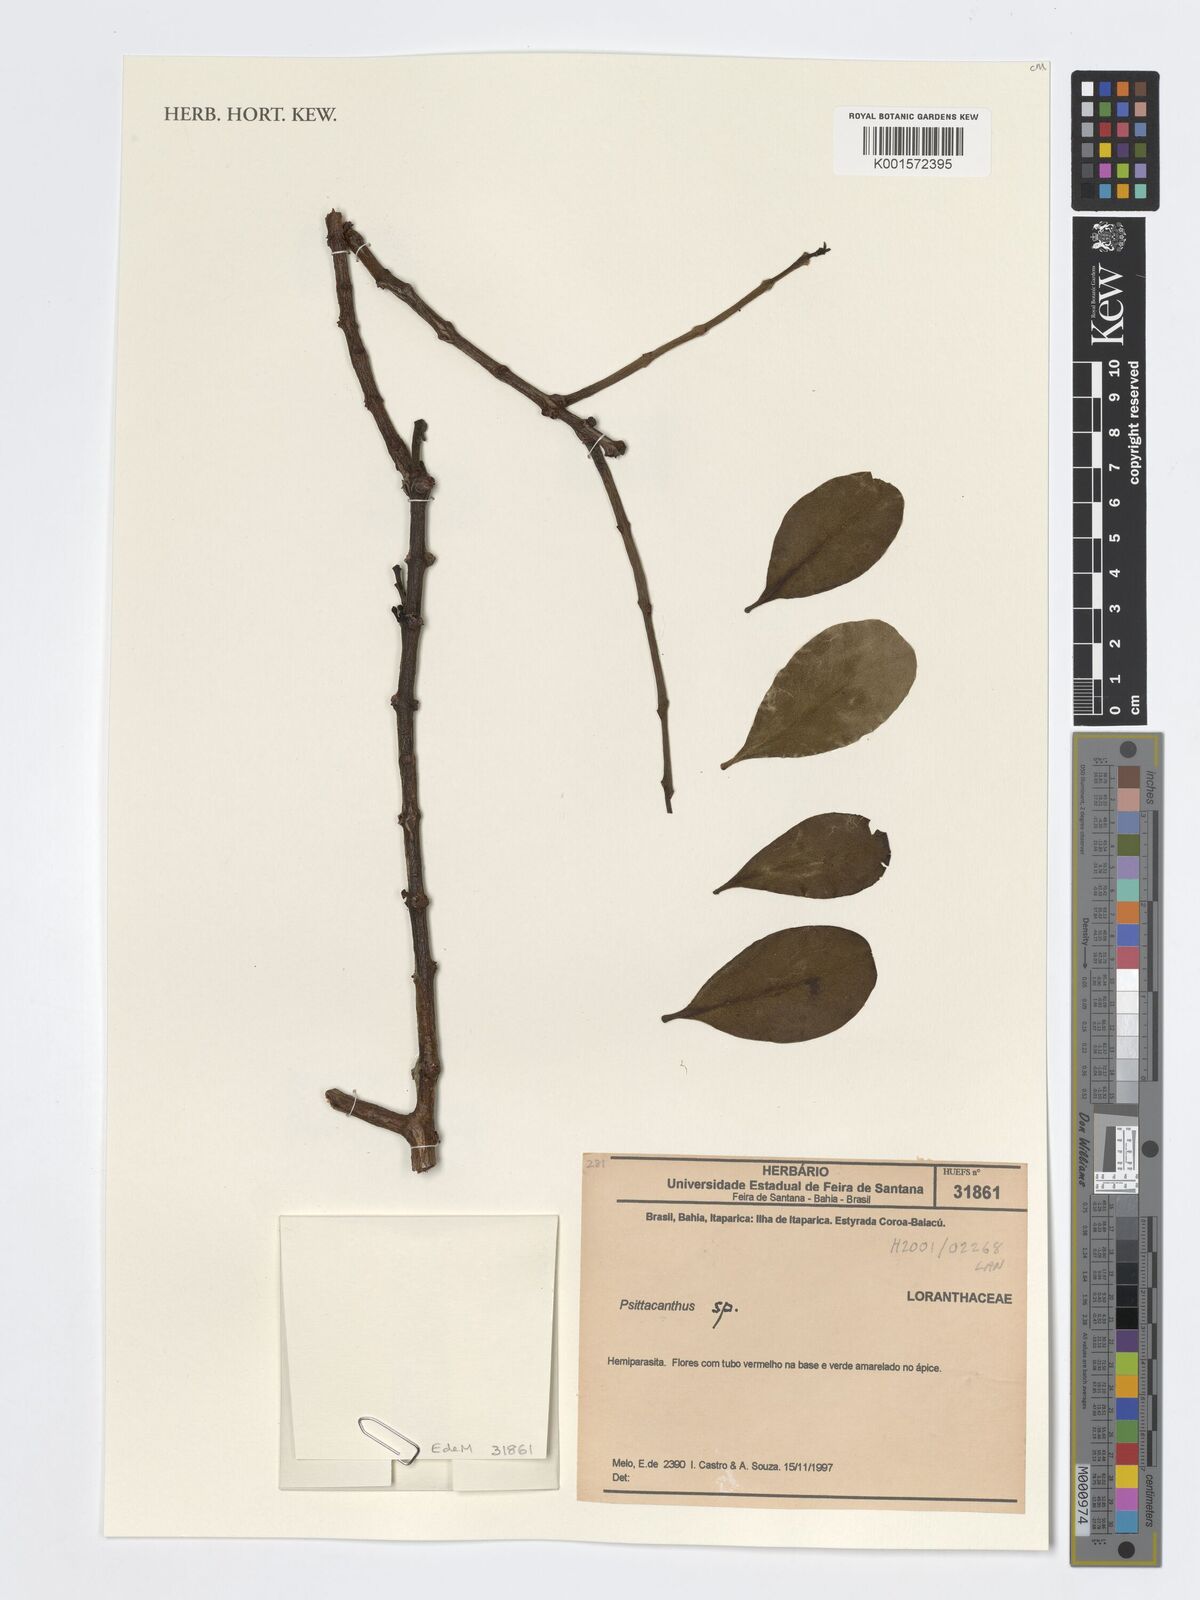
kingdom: Plantae
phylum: Tracheophyta
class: Magnoliopsida
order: Santalales
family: Loranthaceae
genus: Psittacanthus
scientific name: Psittacanthus
